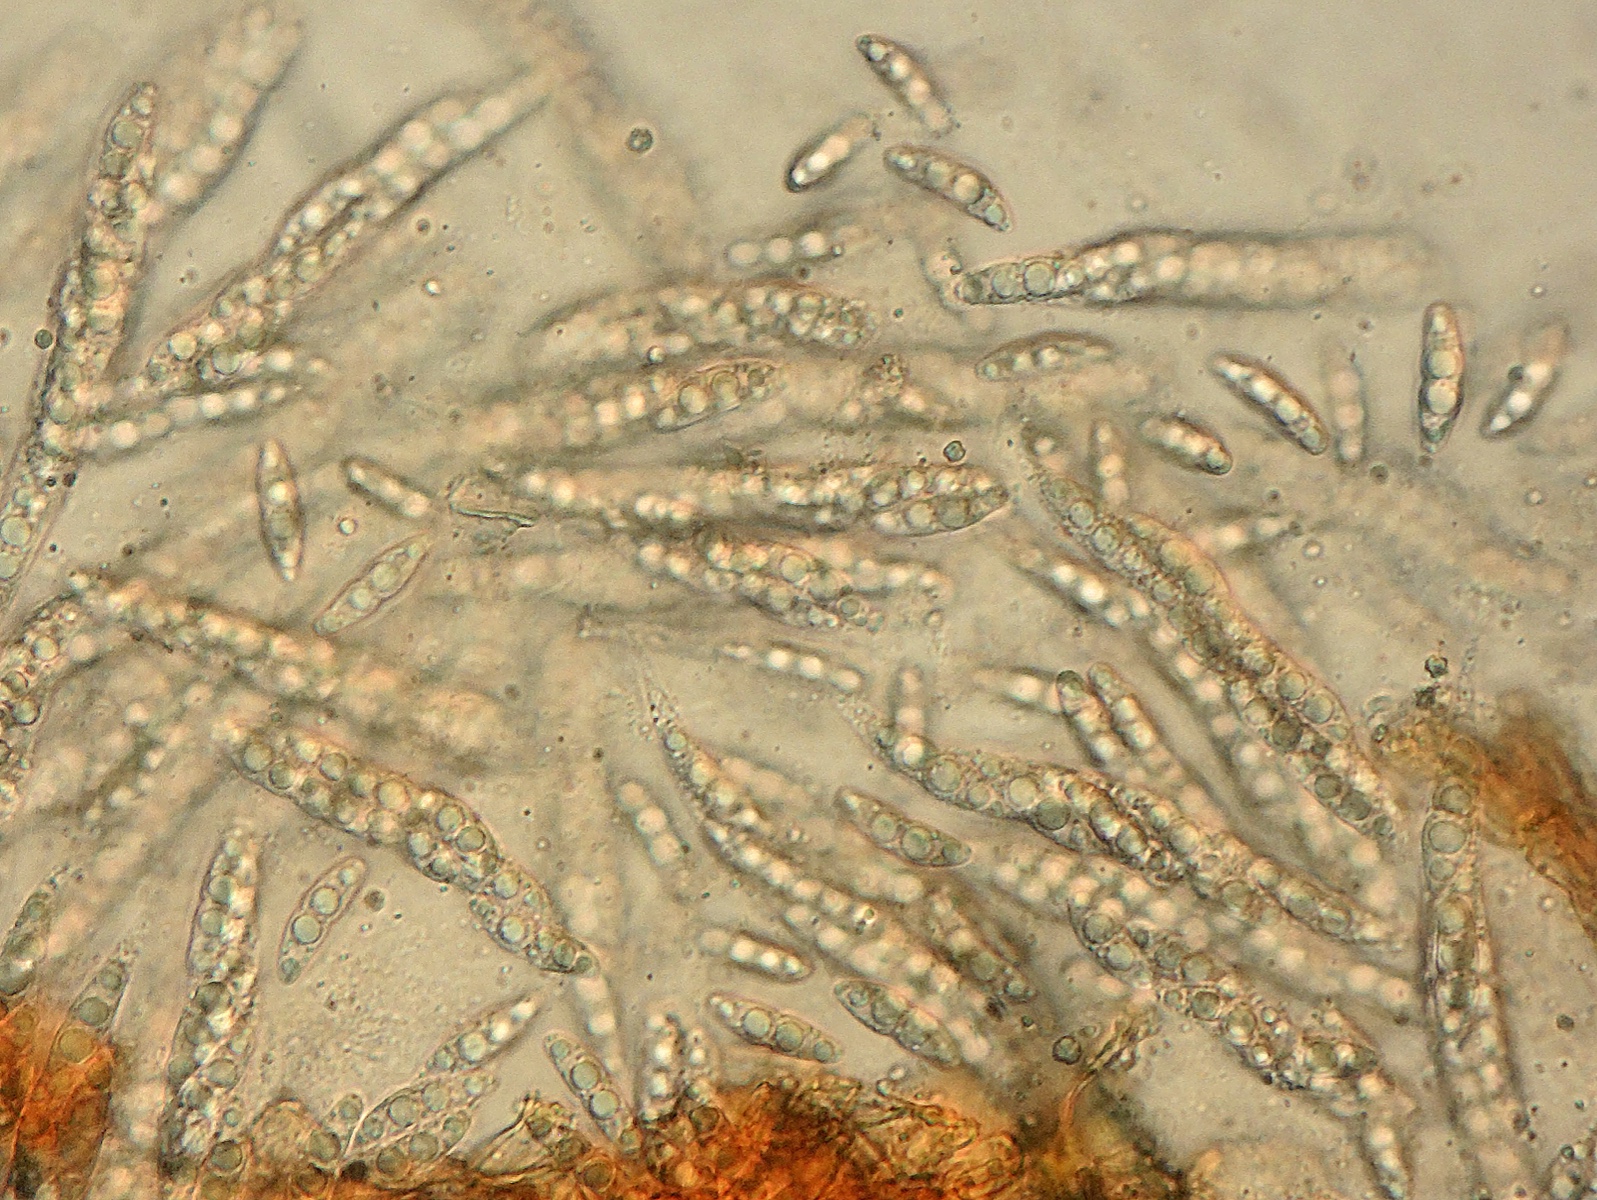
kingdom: Fungi
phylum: Ascomycota
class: Sordariomycetes
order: Diaporthales
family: Gnomoniaceae
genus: Plagiostoma
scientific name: Plagiostoma lugubre
